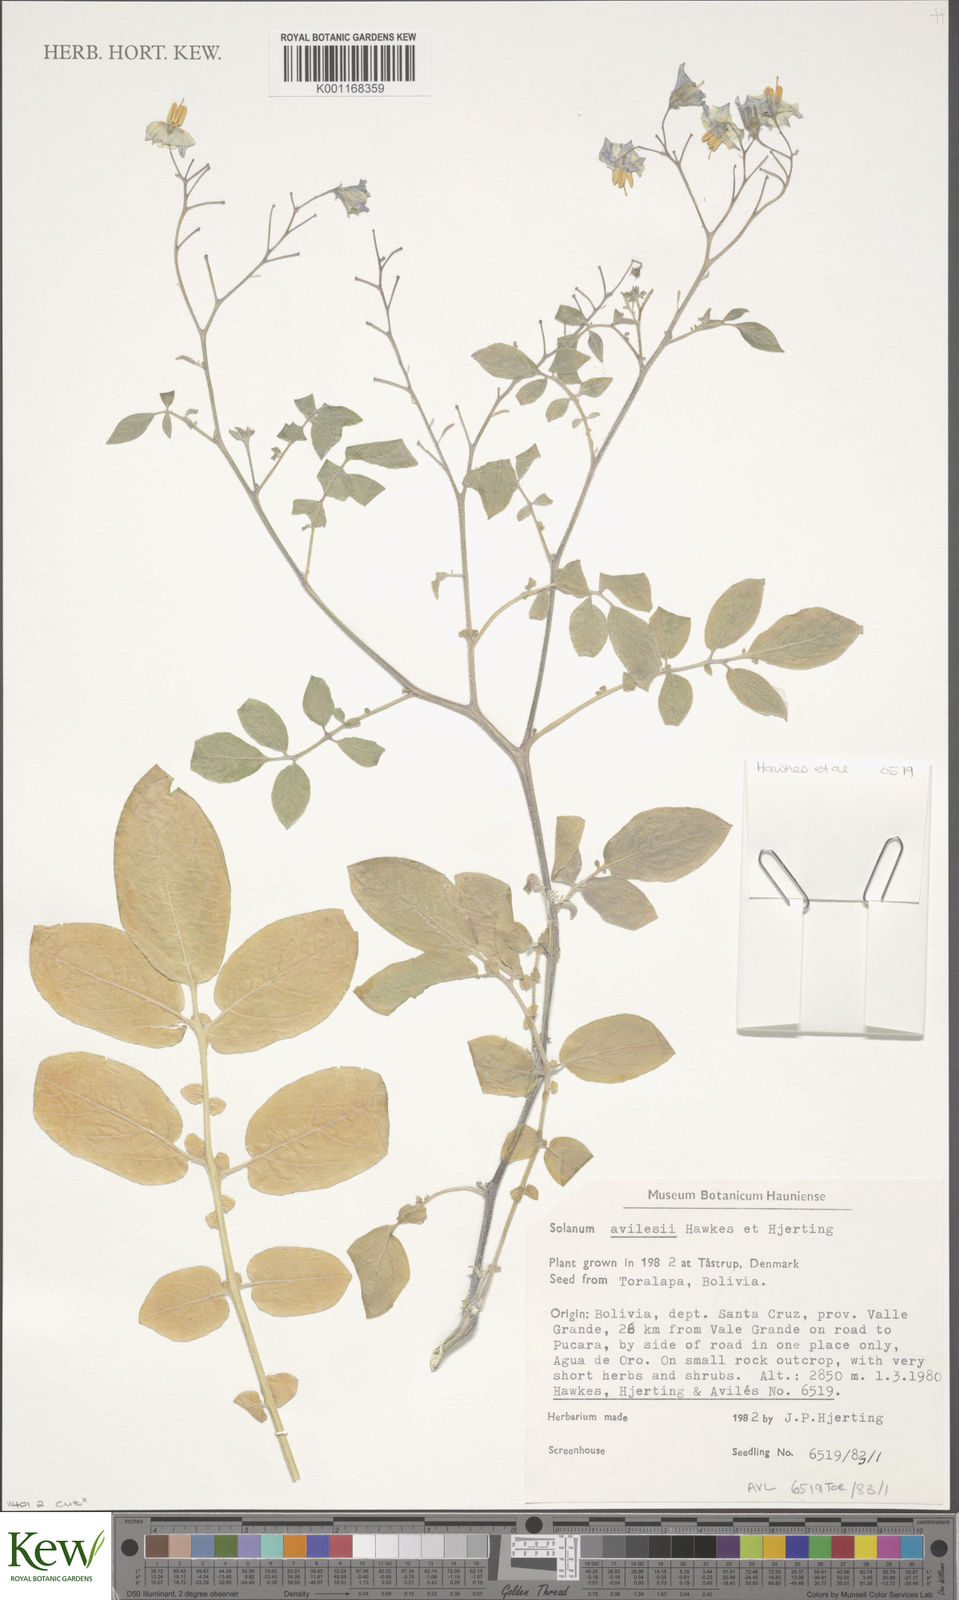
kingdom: Plantae
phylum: Tracheophyta
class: Magnoliopsida
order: Solanales
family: Solanaceae
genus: Solanum
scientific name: Solanum brevicaule
